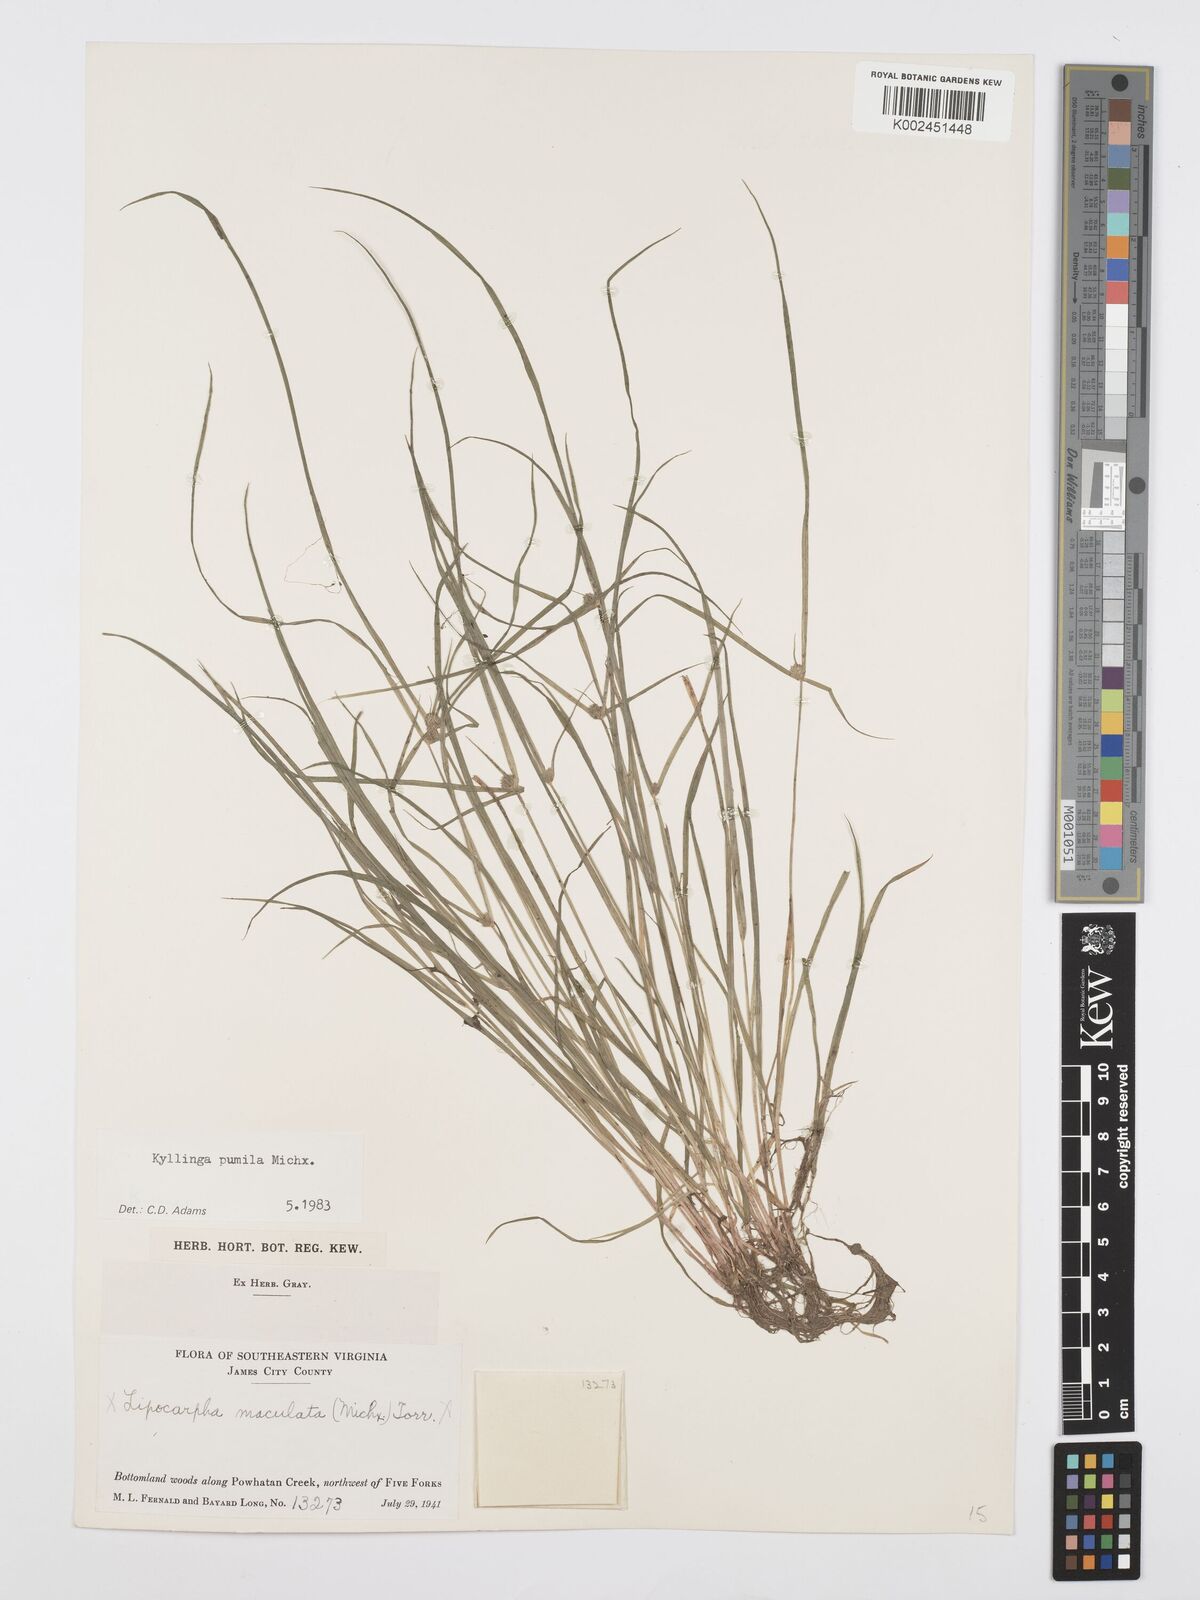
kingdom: Plantae
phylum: Tracheophyta
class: Liliopsida
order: Poales
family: Cyperaceae
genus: Cyperus
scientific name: Cyperus
